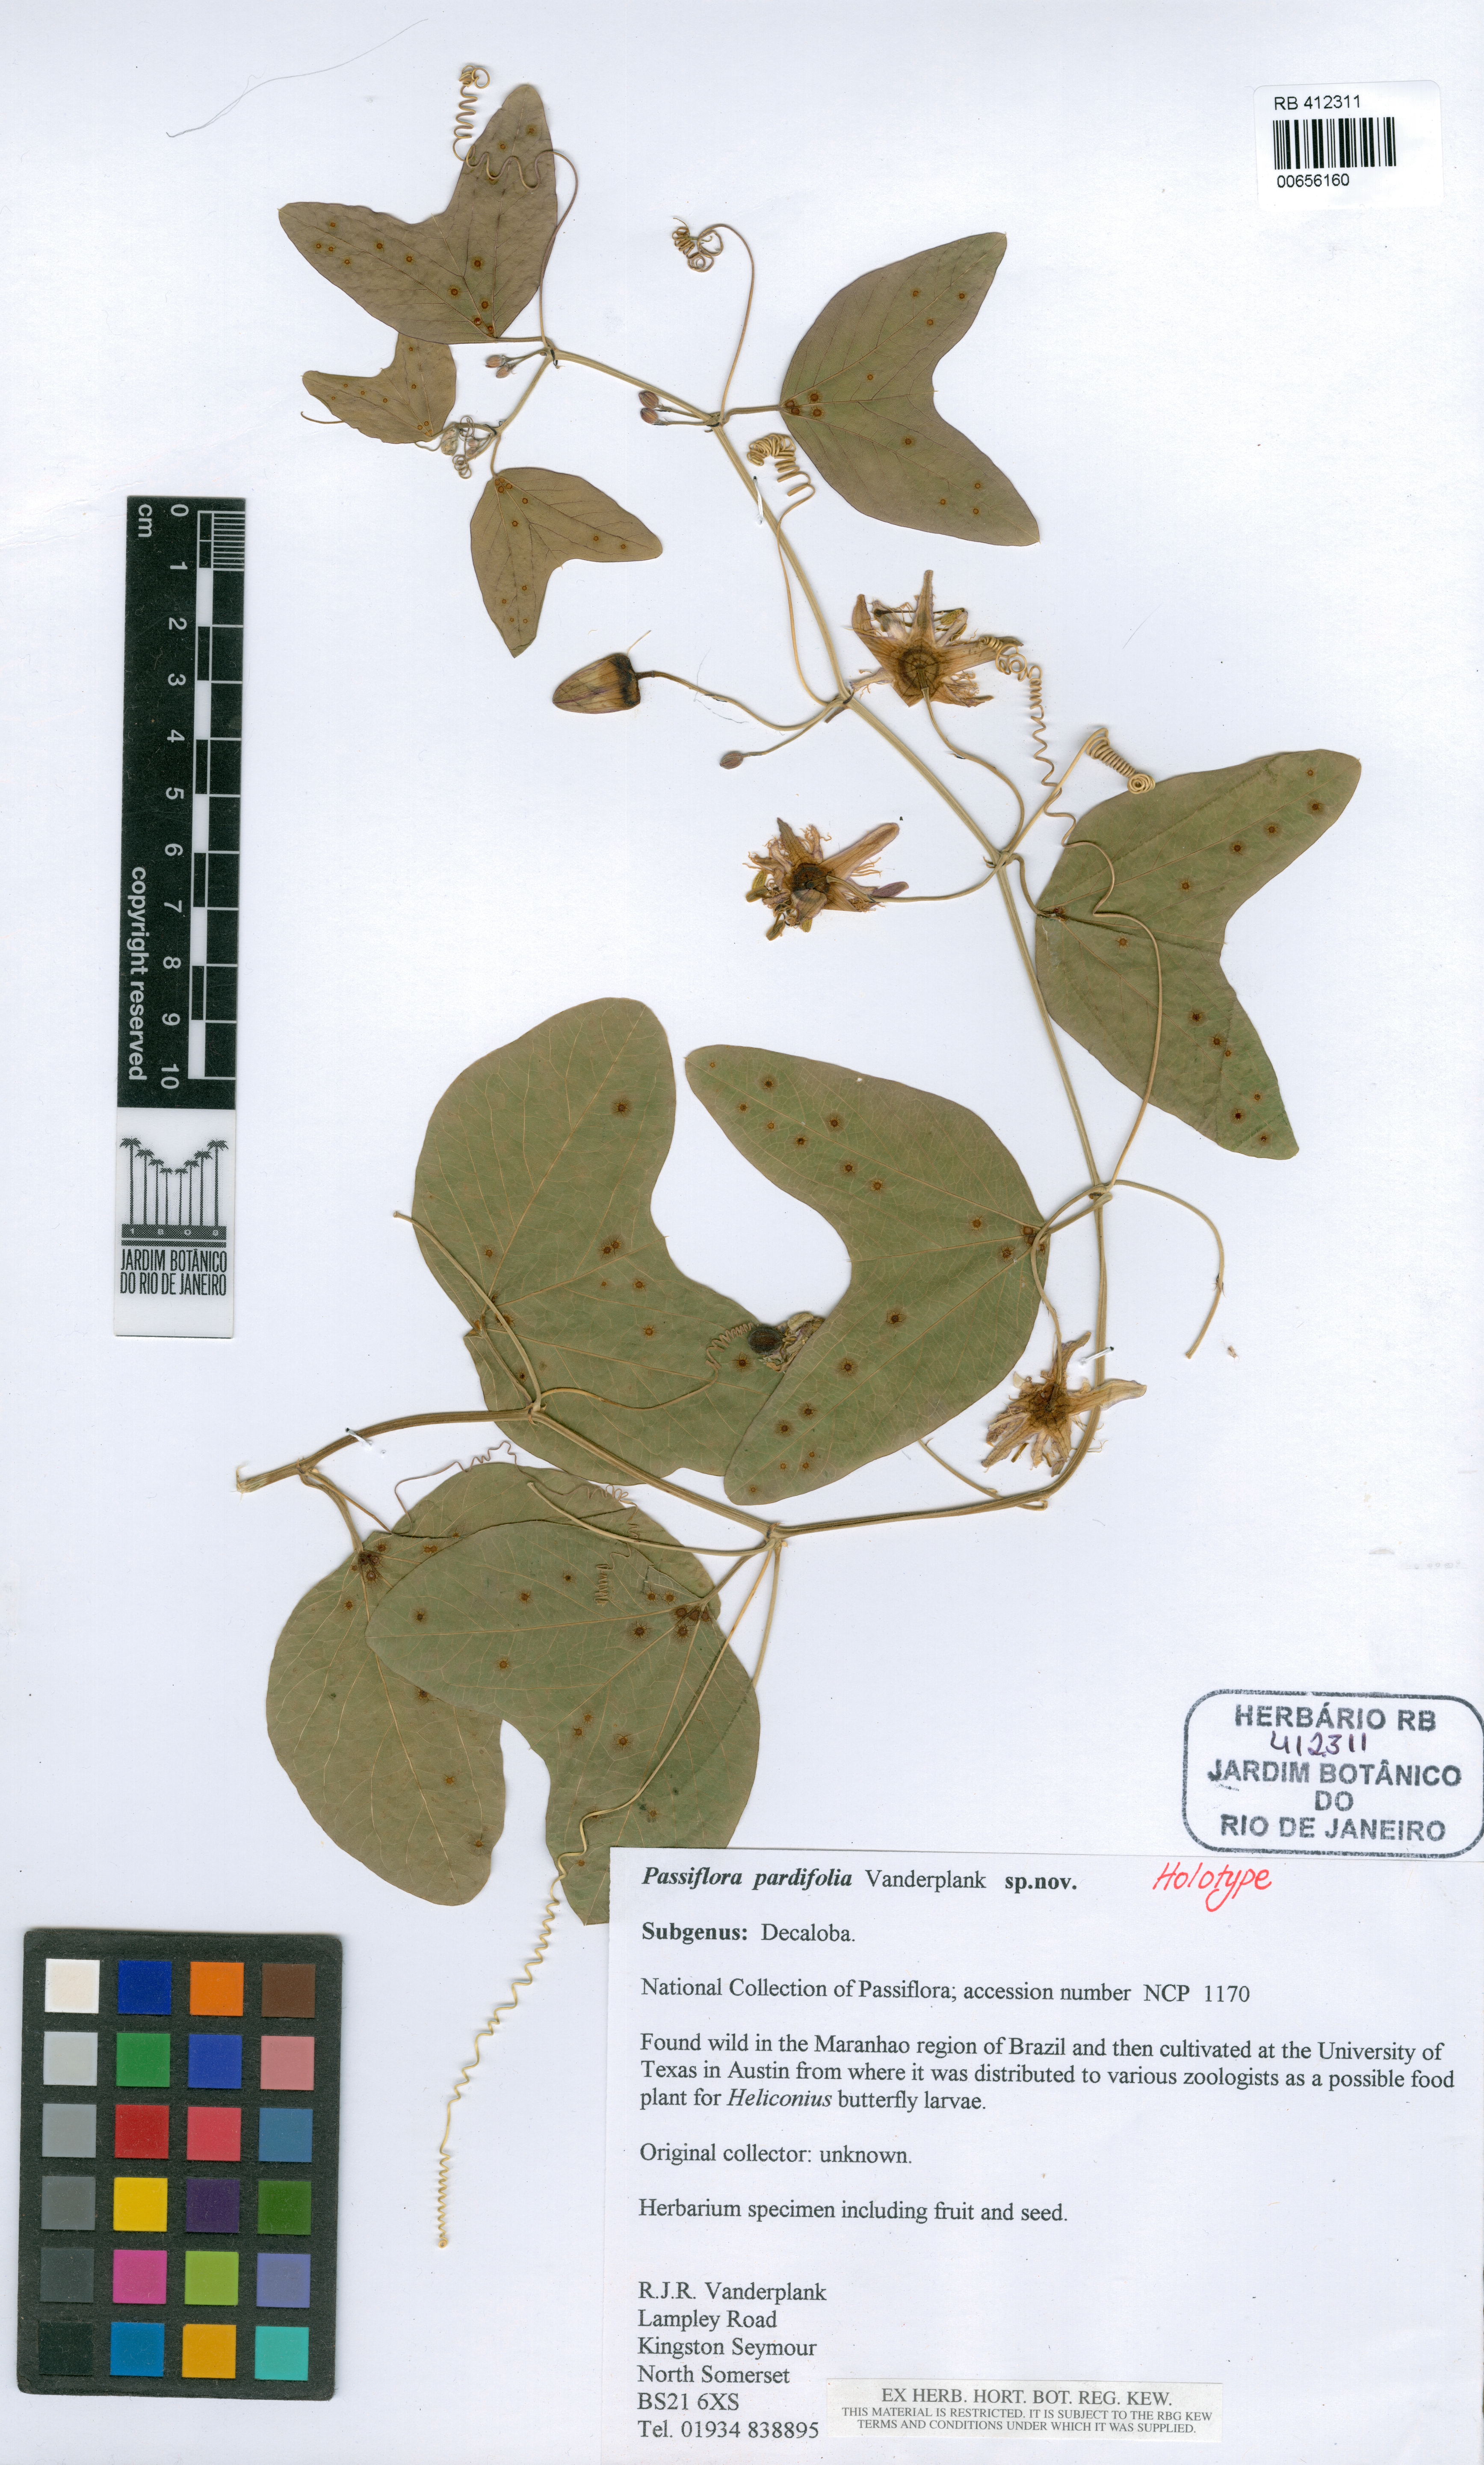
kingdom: Plantae
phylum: Tracheophyta
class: Magnoliopsida
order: Malpighiales
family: Passifloraceae
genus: Passiflora
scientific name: Passiflora pardifolia
